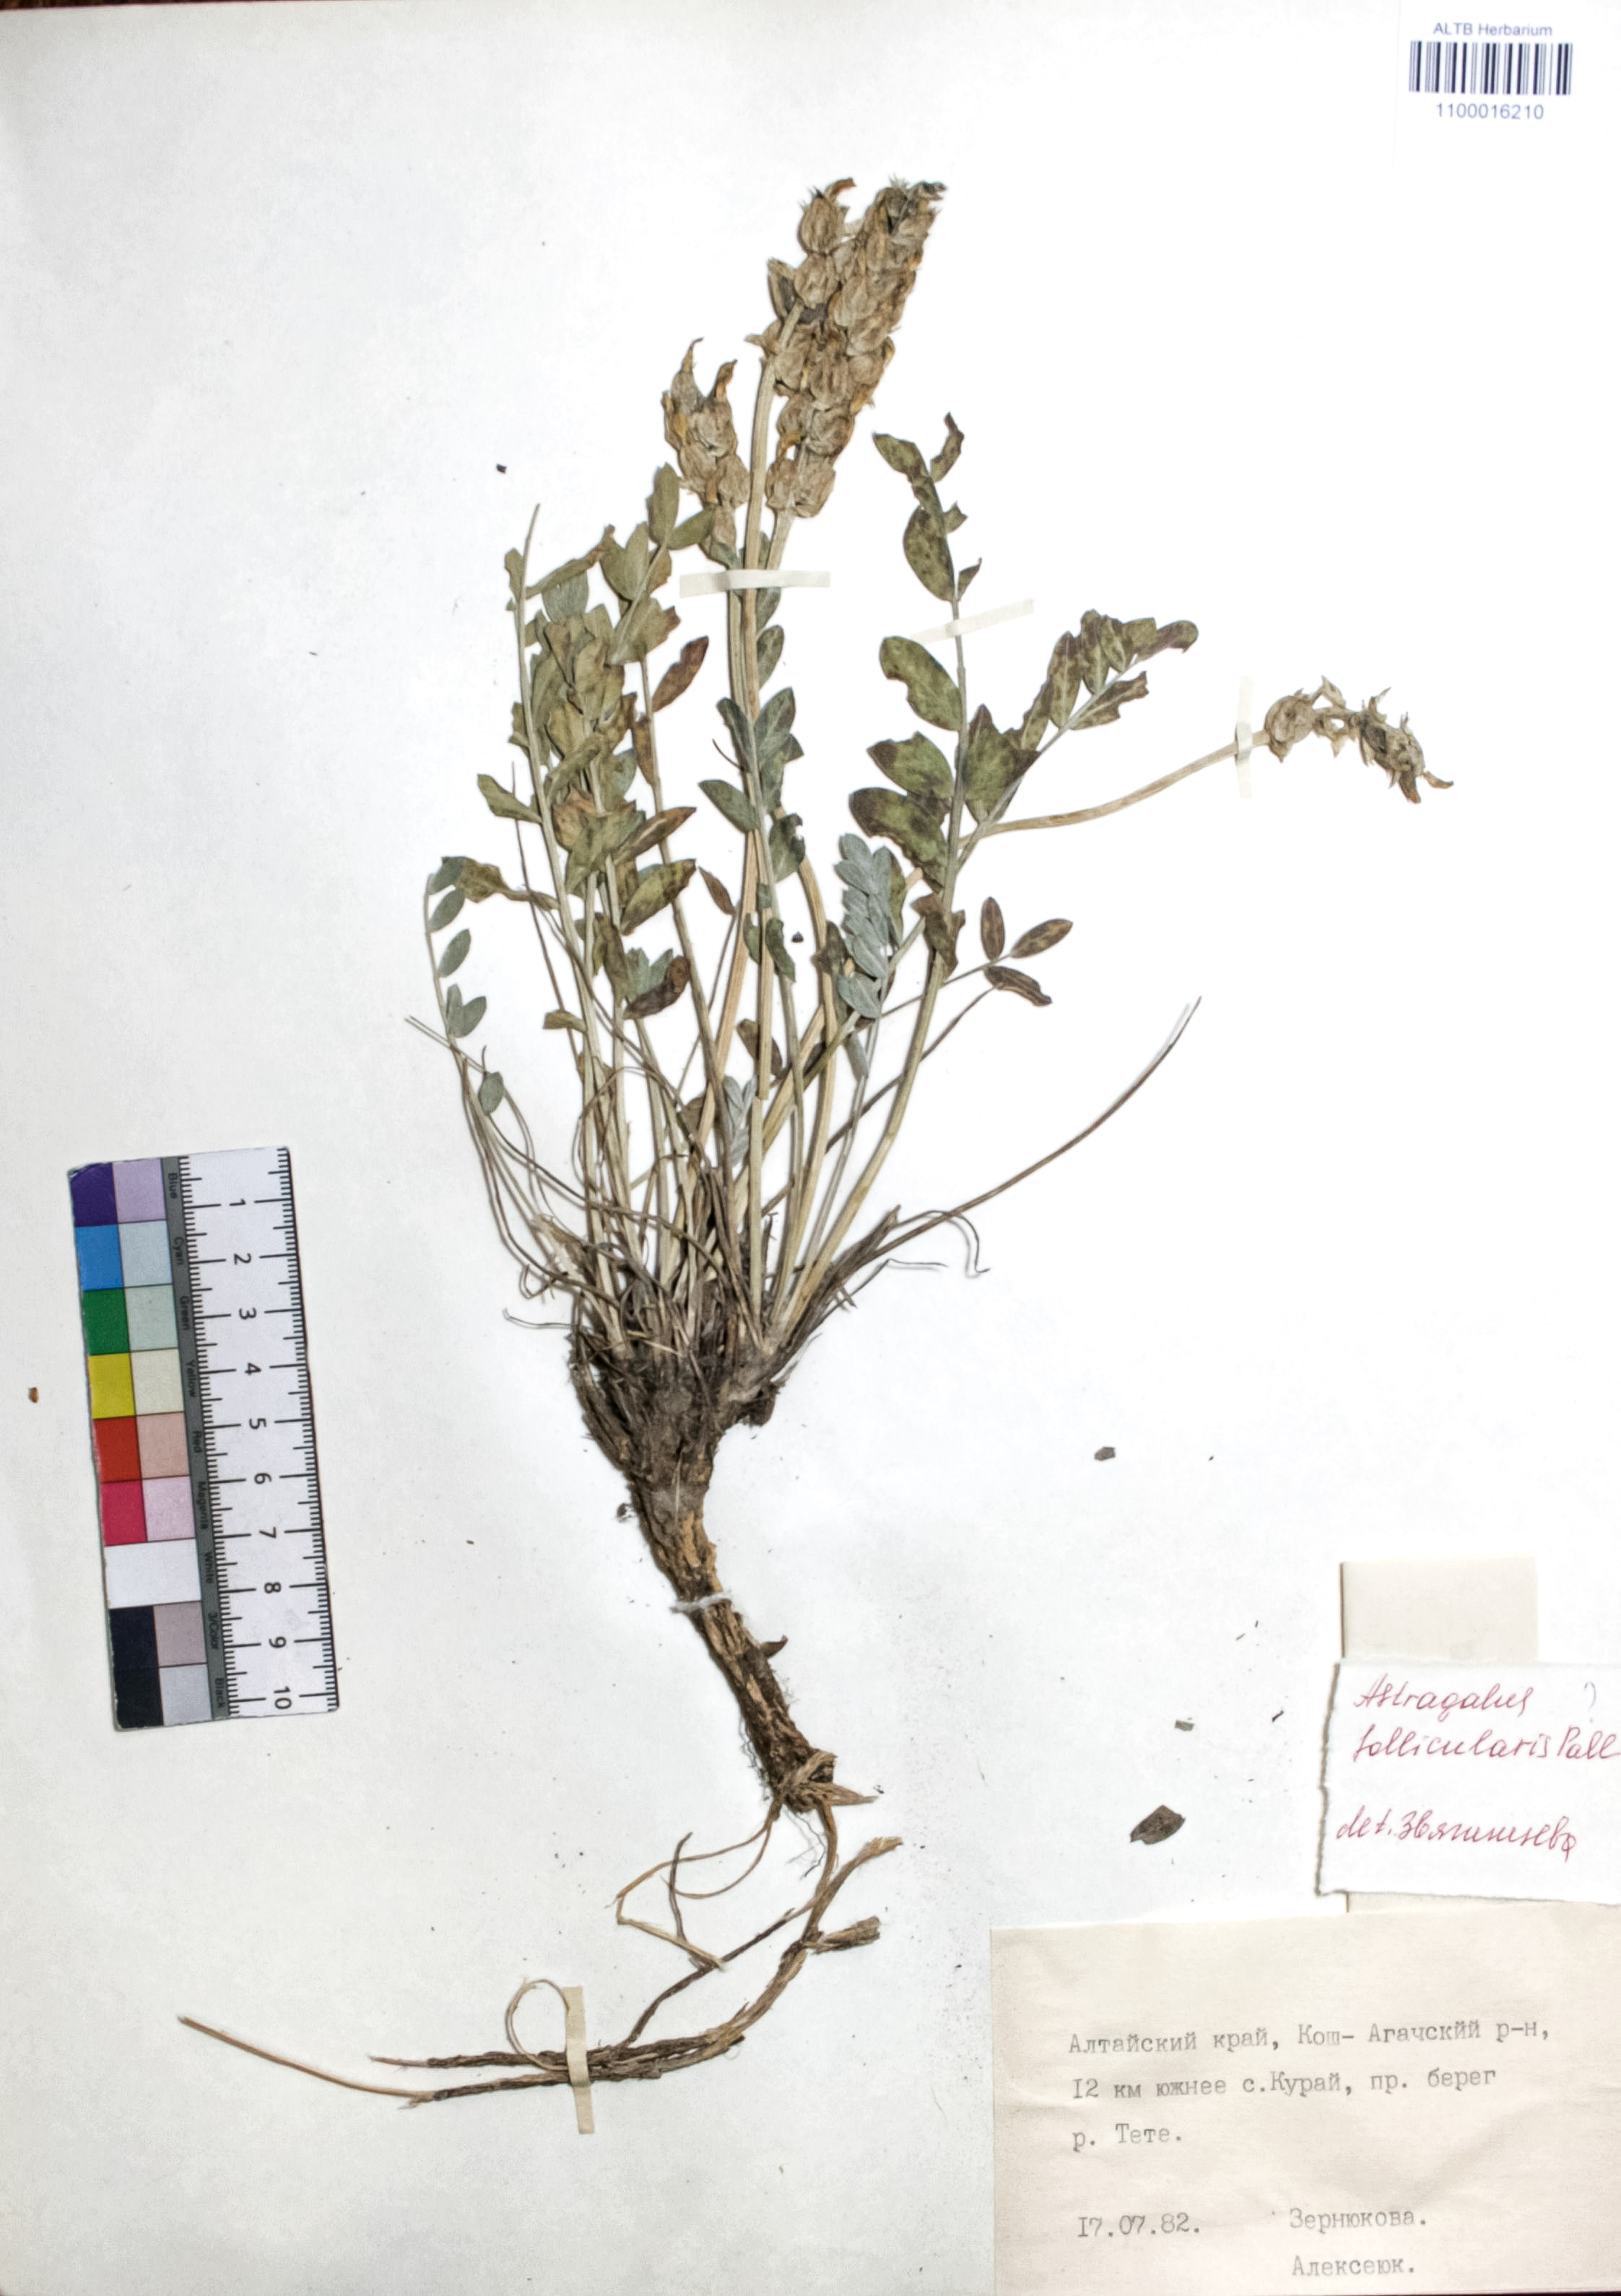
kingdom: Plantae
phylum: Tracheophyta
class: Magnoliopsida
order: Fabales
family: Fabaceae
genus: Astragalus
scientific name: Astragalus follicularis
